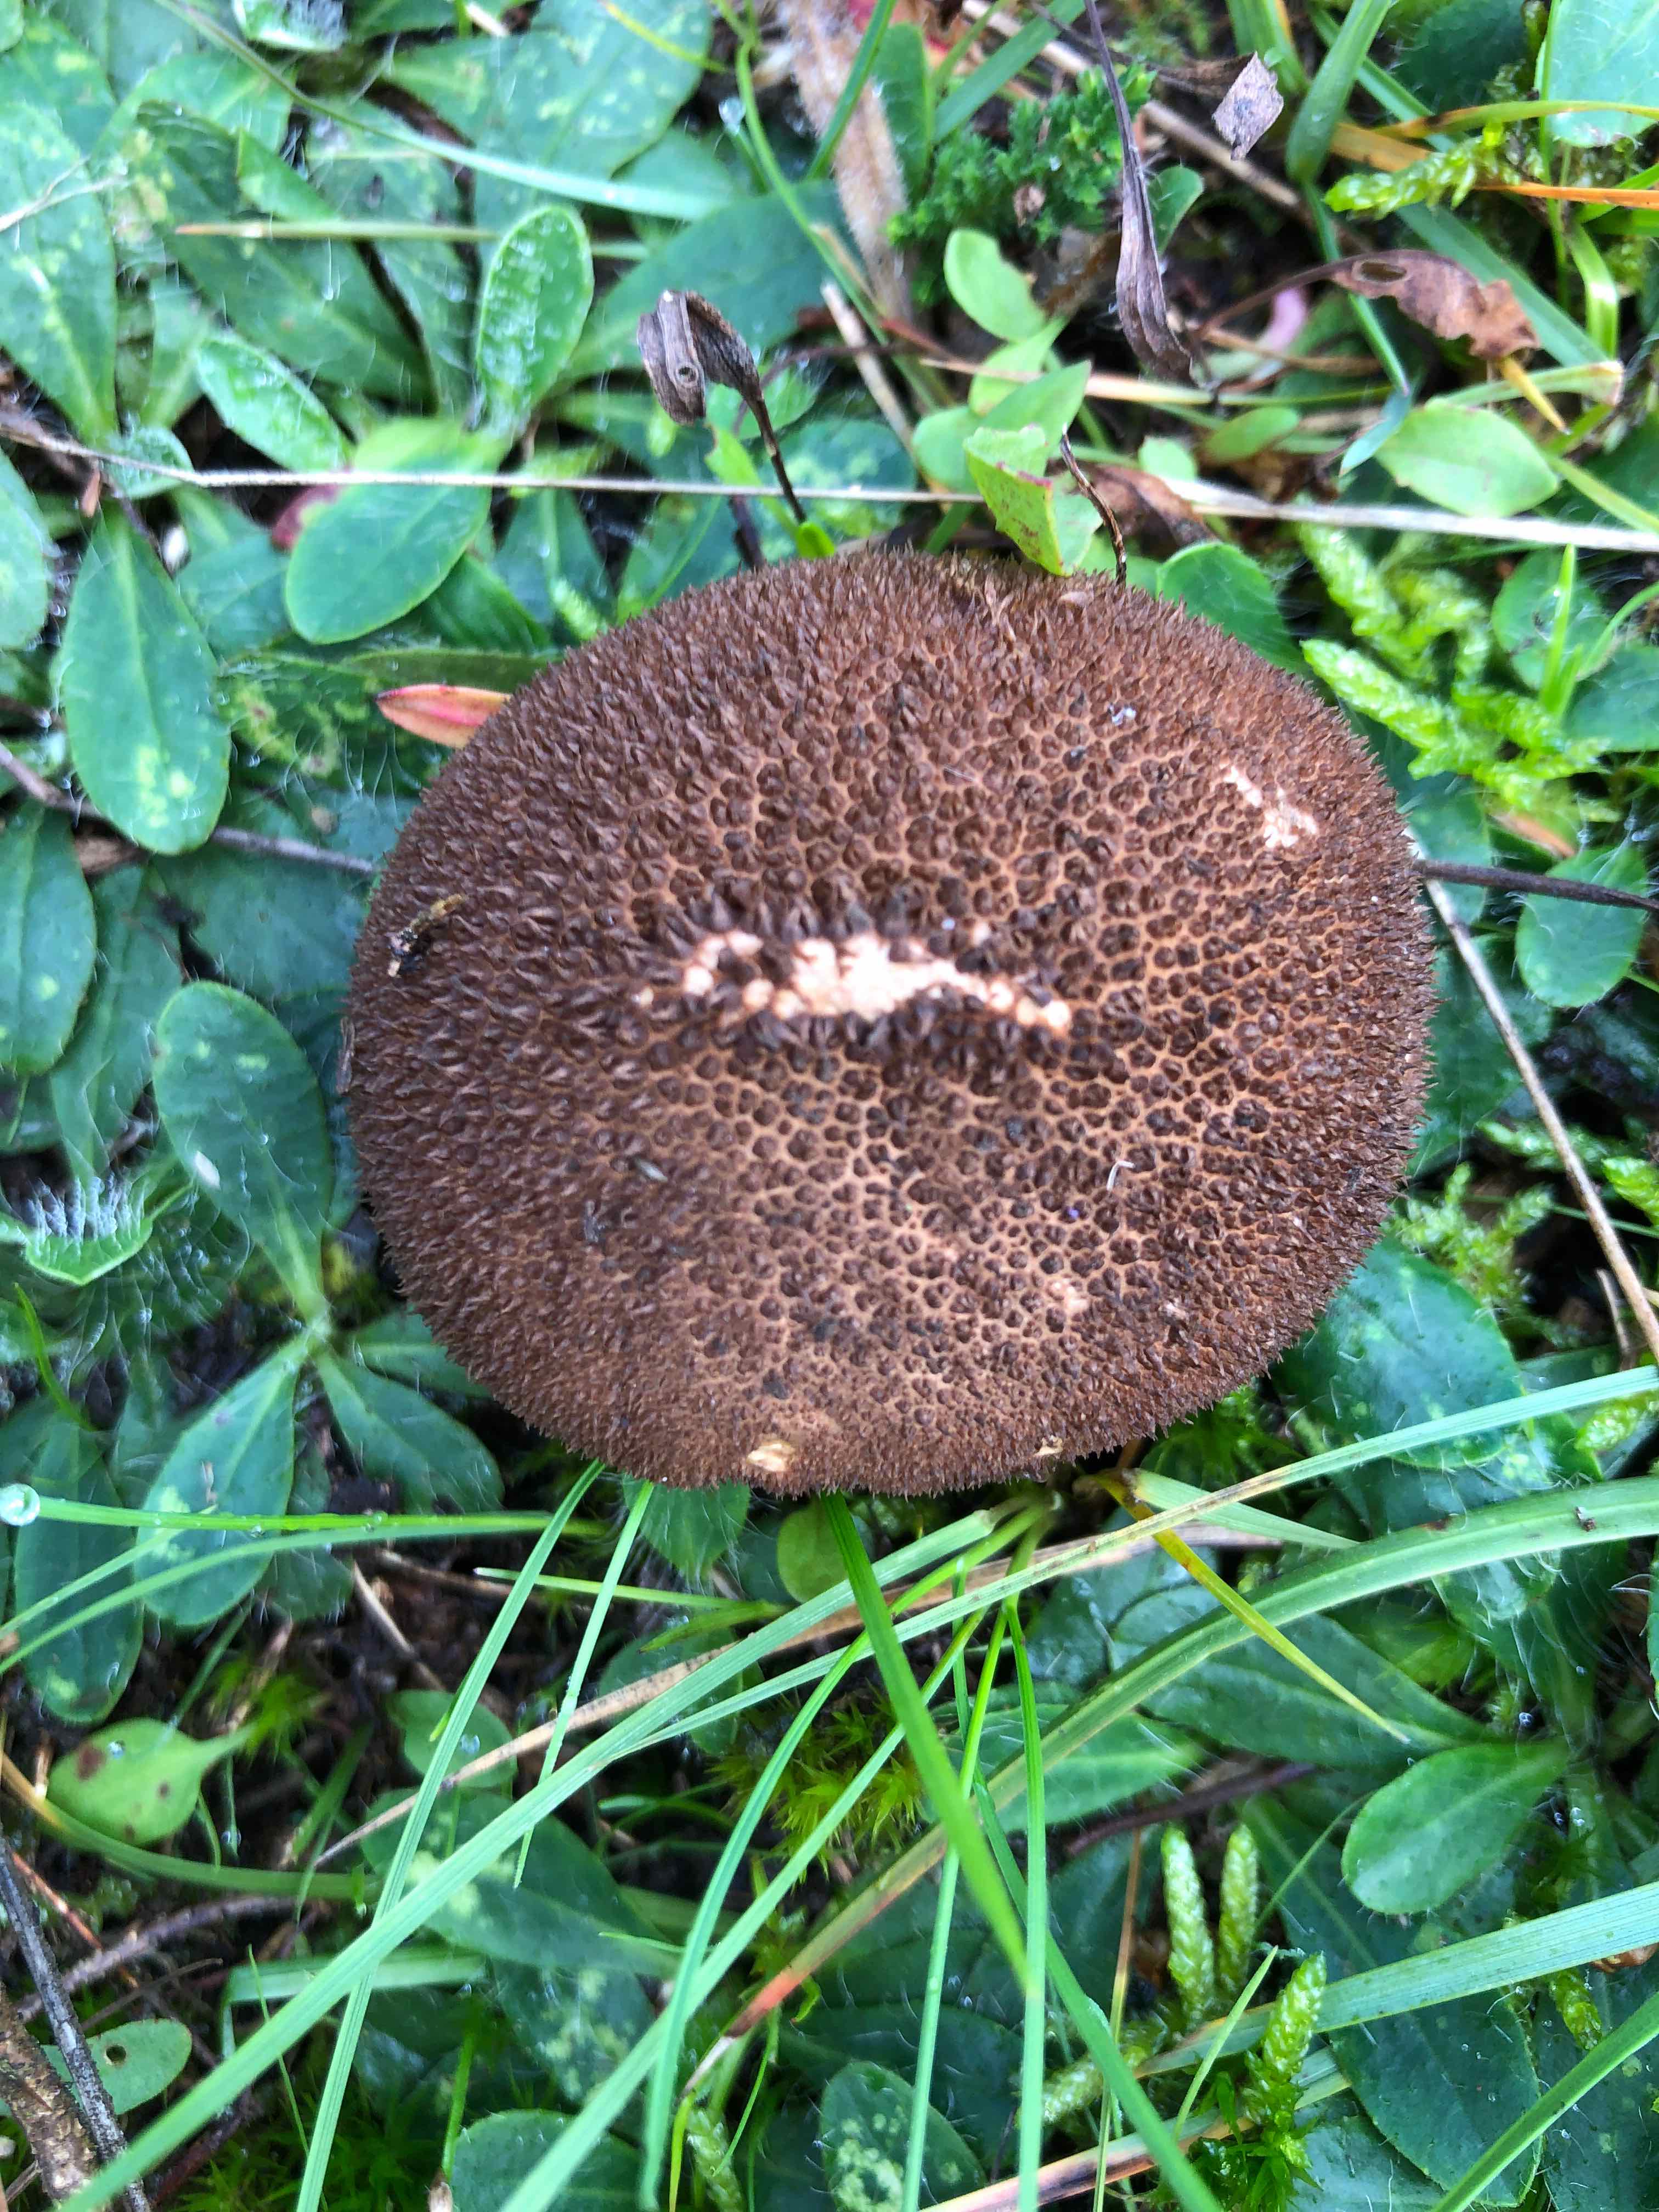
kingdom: Fungi
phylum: Basidiomycota
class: Agaricomycetes
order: Agaricales
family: Lycoperdaceae
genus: Lycoperdon
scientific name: Lycoperdon nigrescens
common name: sortagtig støvbold
